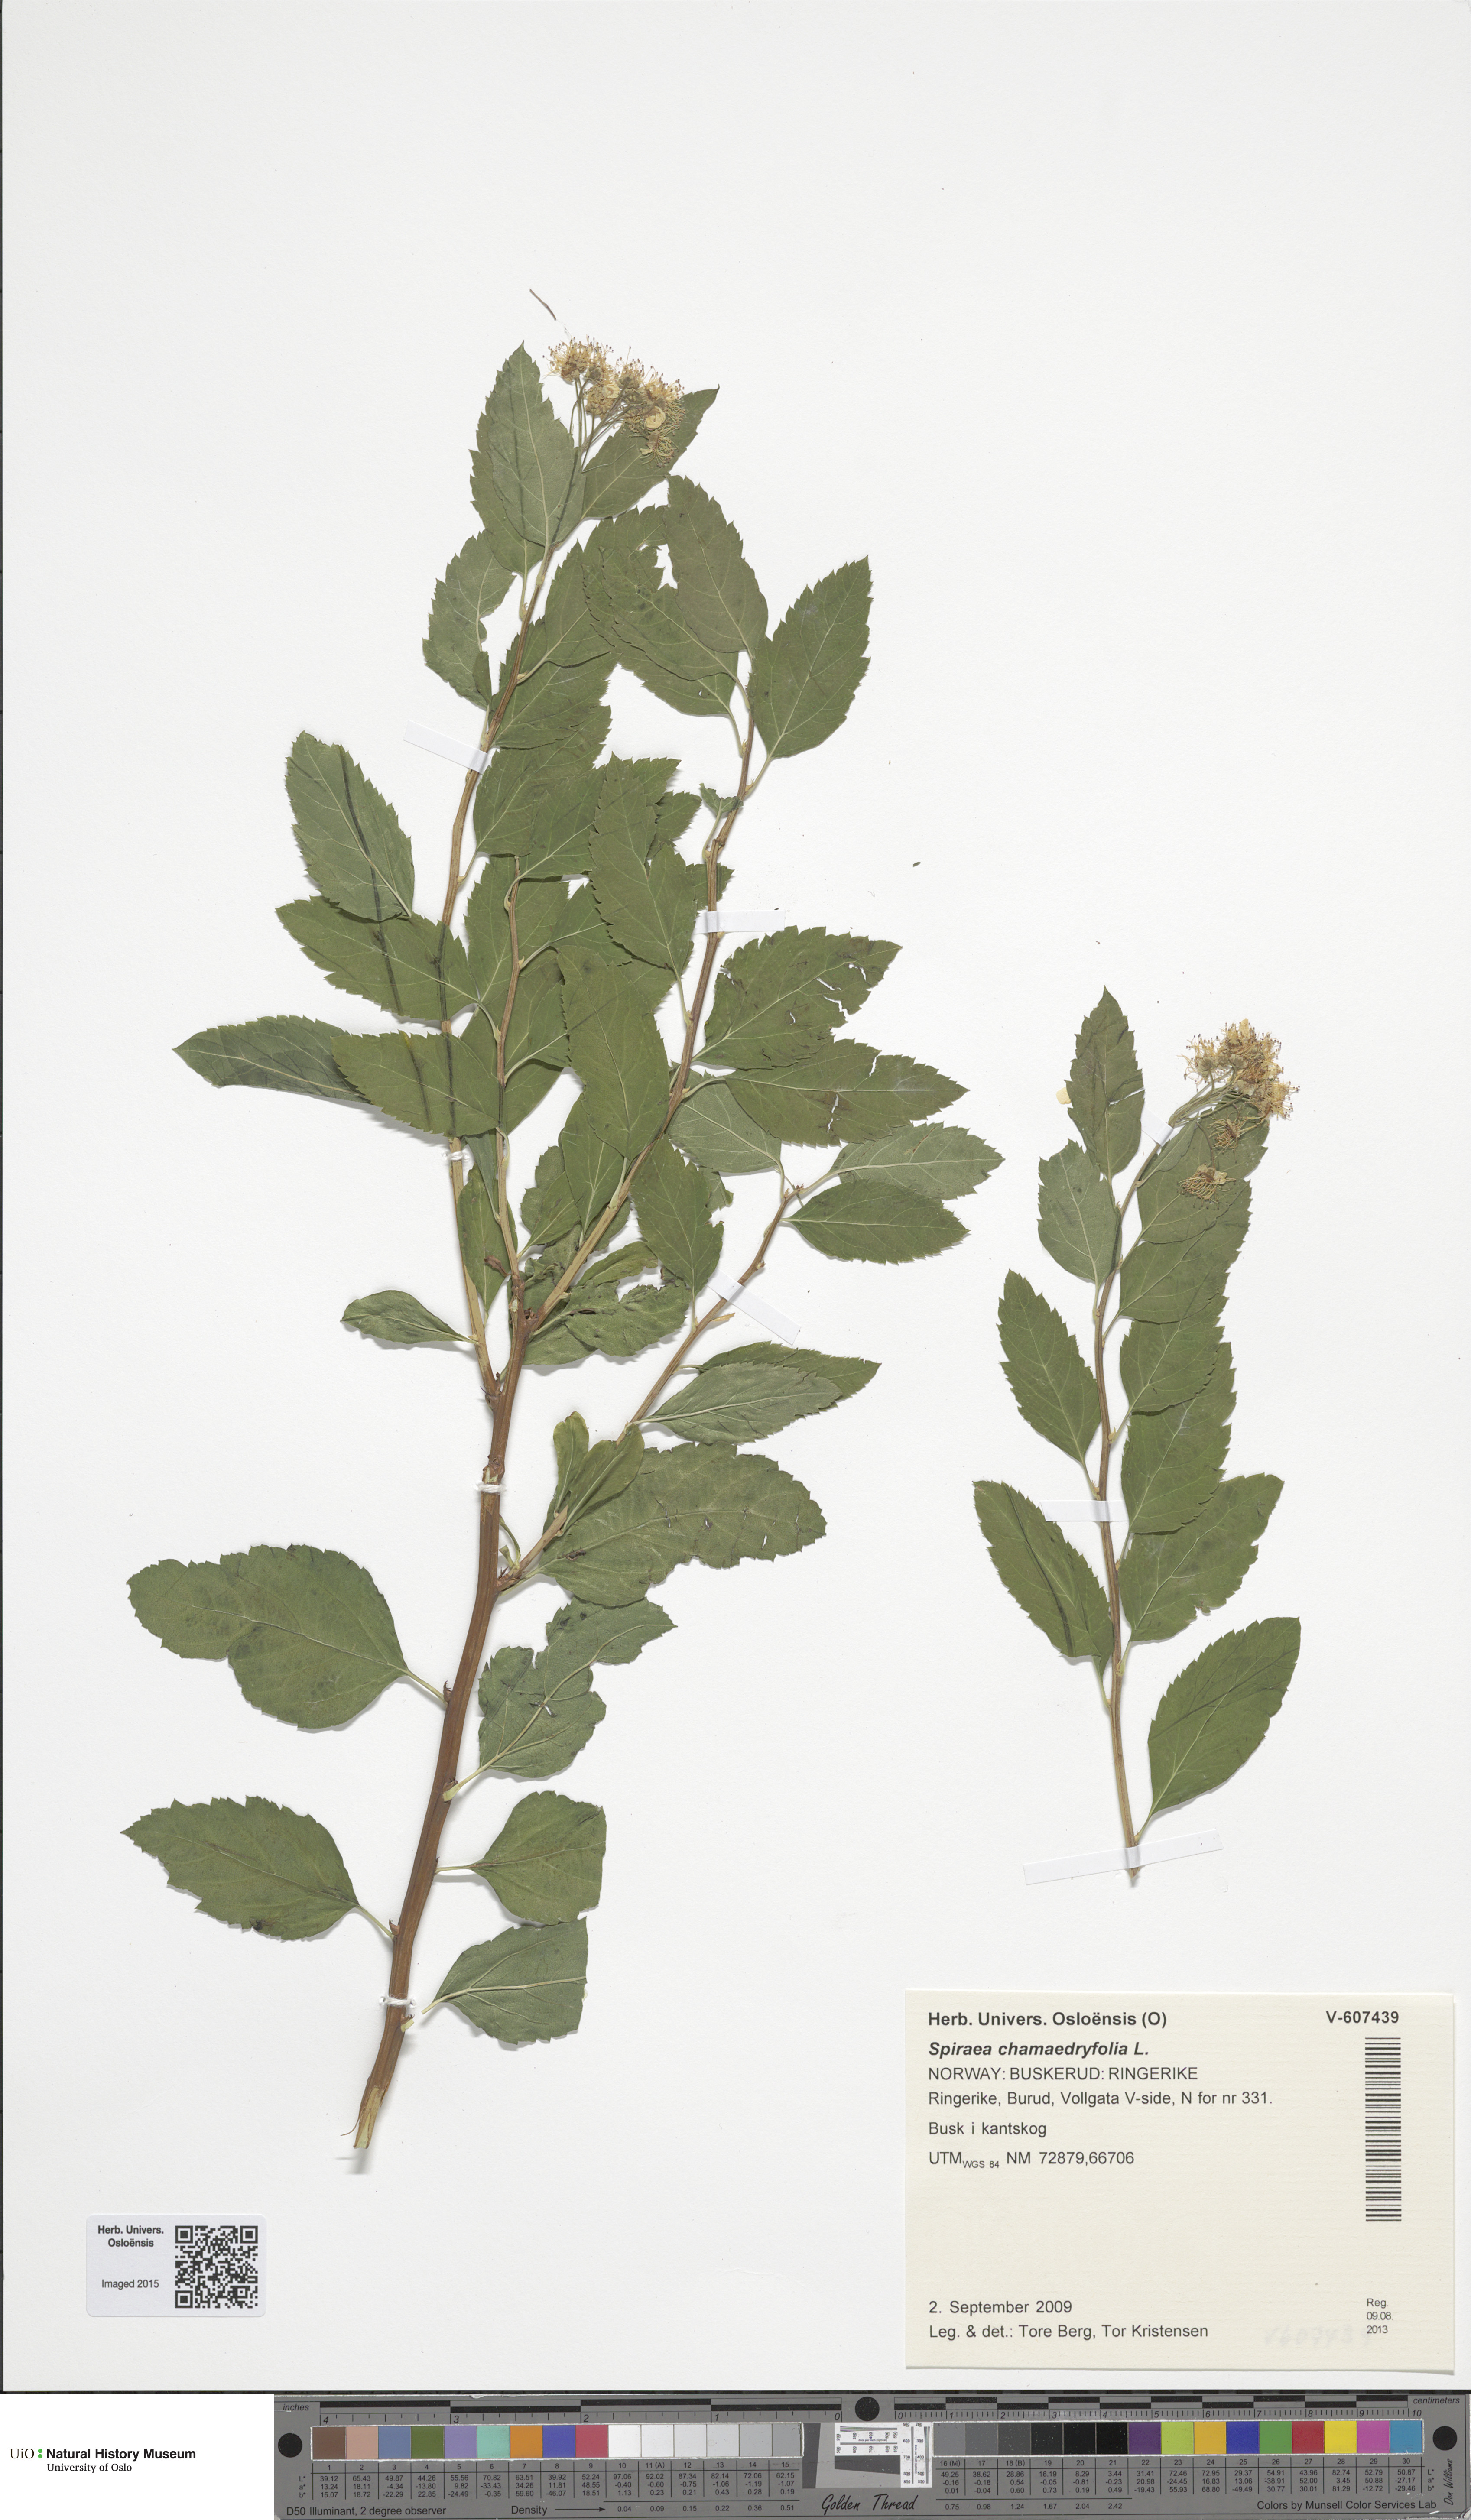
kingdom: Plantae
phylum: Tracheophyta
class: Magnoliopsida
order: Rosales
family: Rosaceae
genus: Spiraea
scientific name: Spiraea chamaedryfolia
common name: Elm-leaved spiraea
